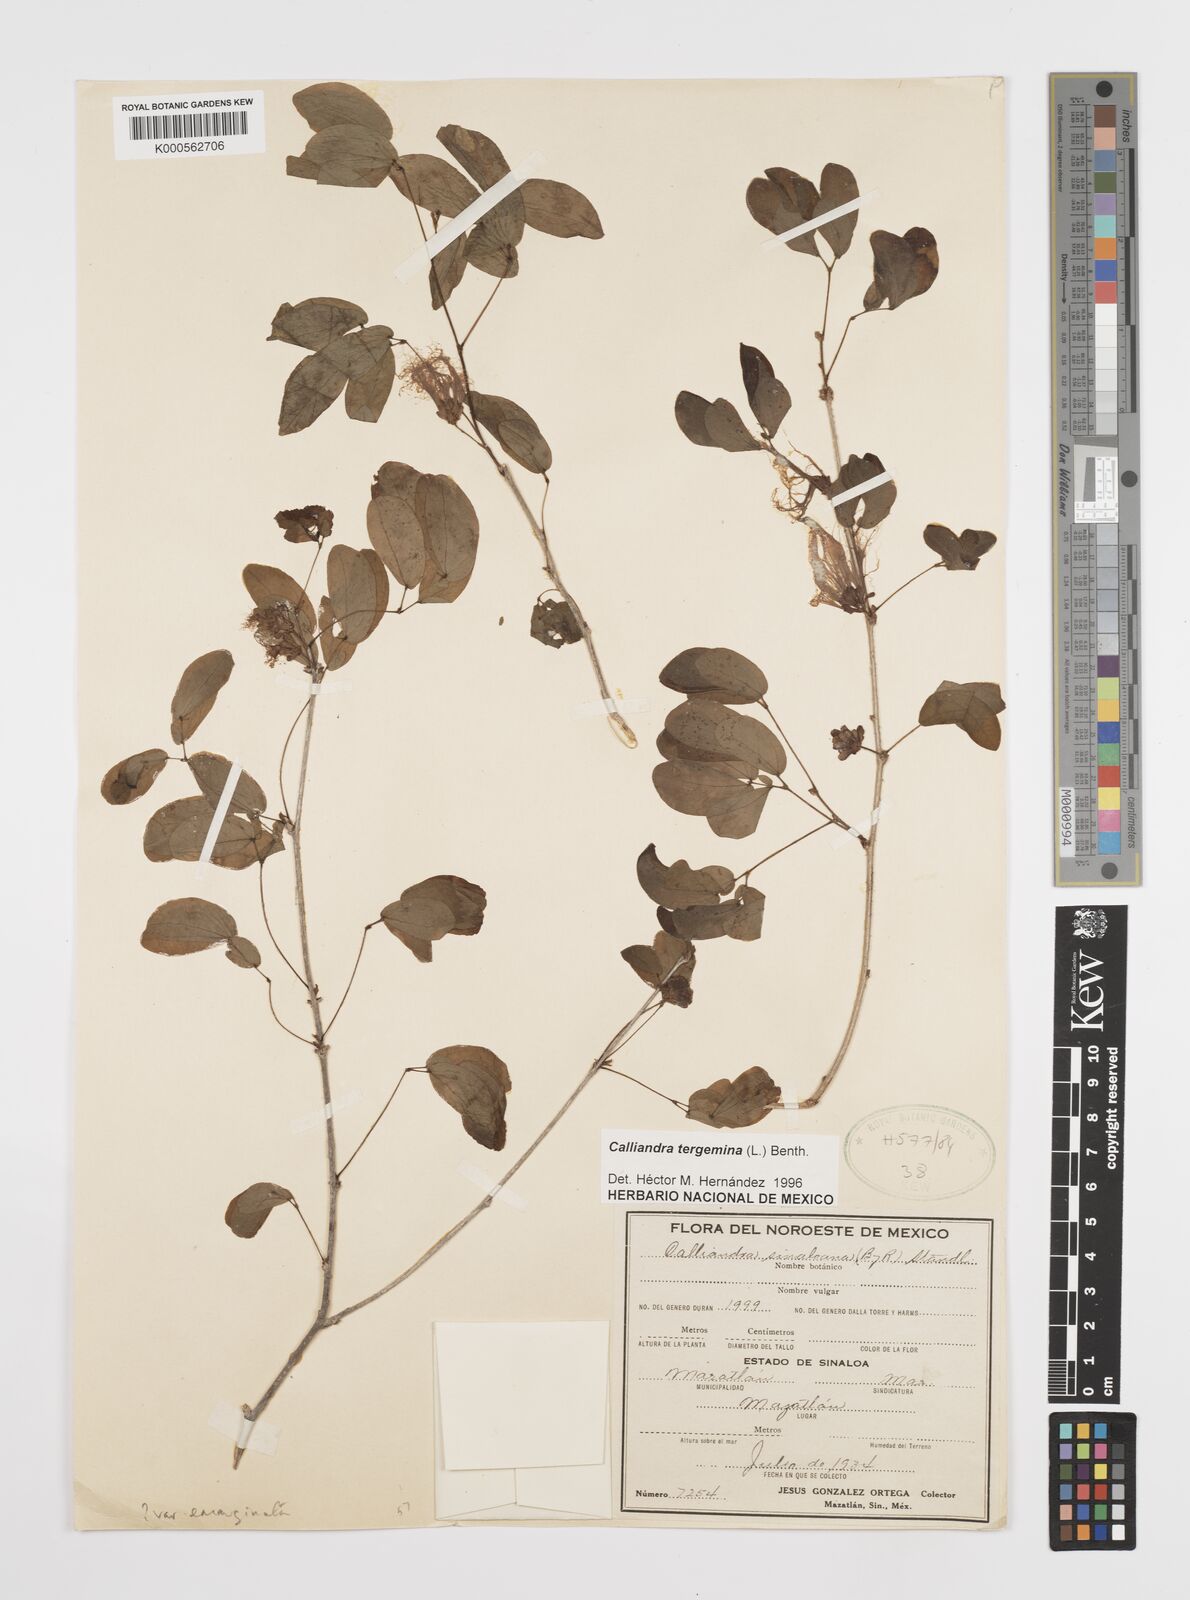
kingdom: Plantae
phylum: Tracheophyta
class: Magnoliopsida
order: Fabales
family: Fabaceae
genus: Calliandra
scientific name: Calliandra tergemina
